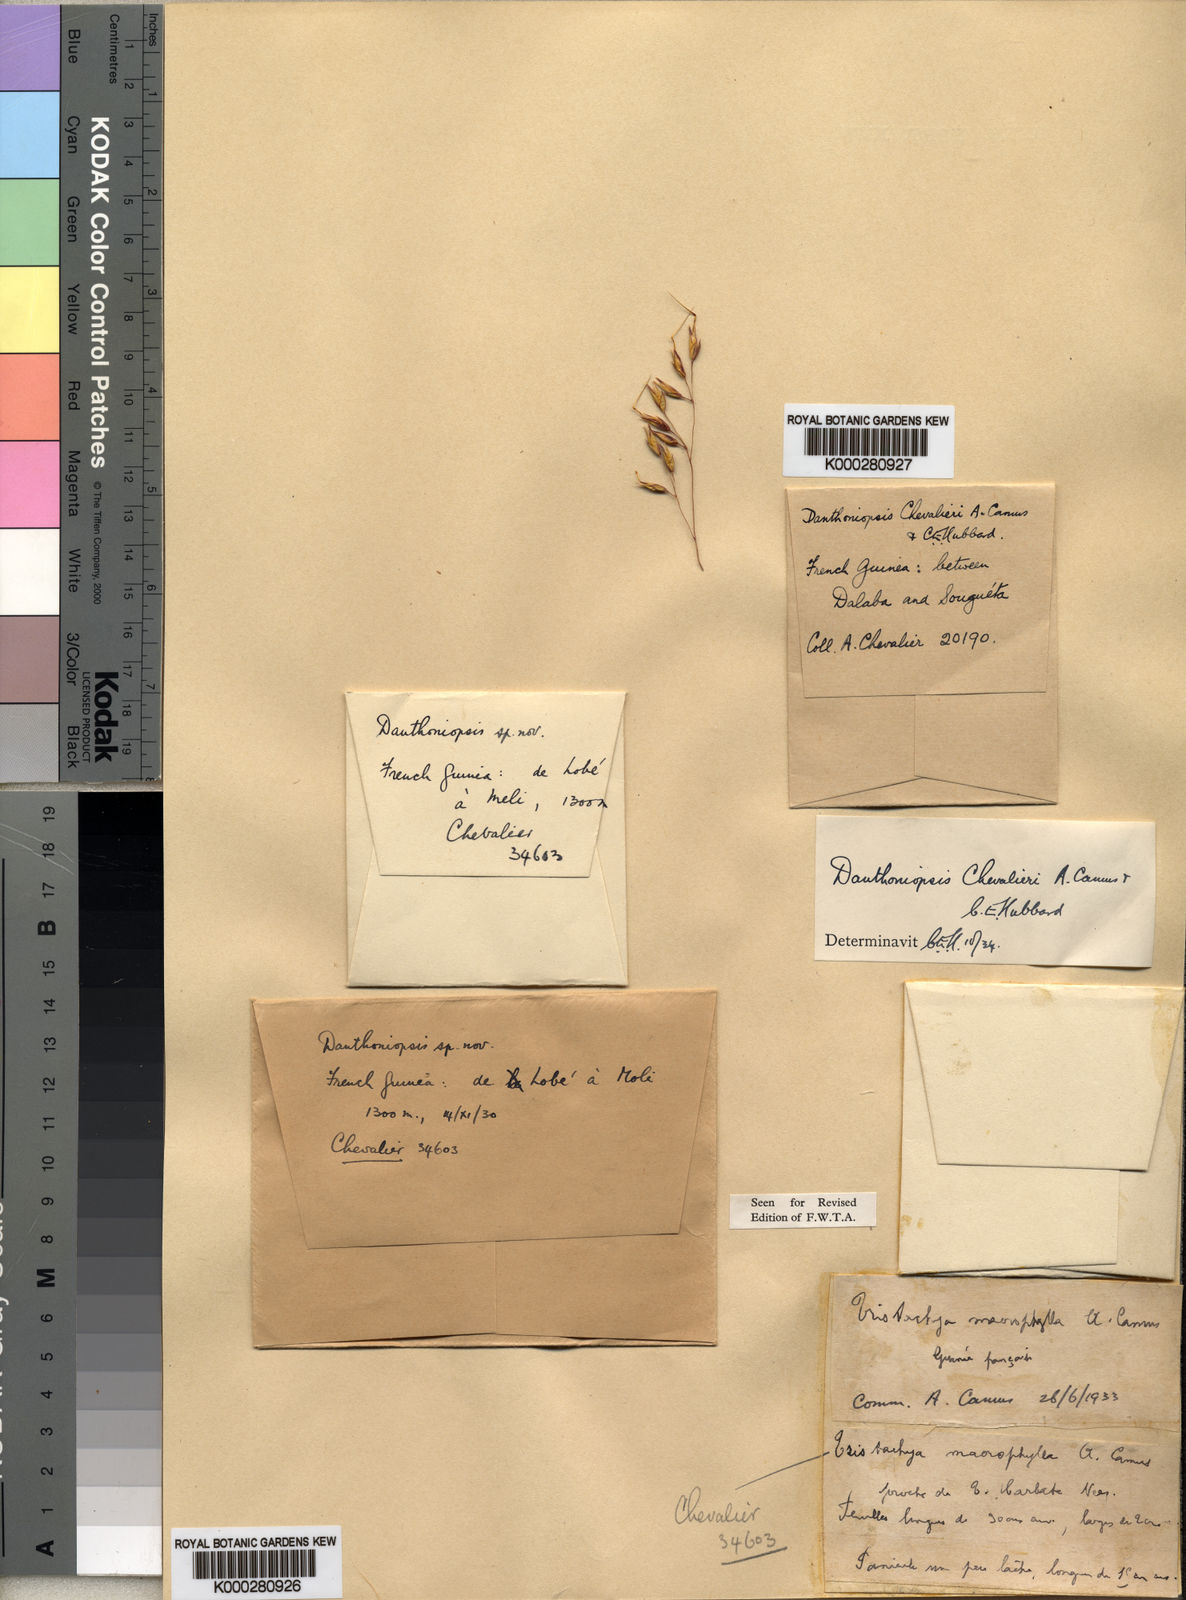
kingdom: Plantae
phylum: Tracheophyta
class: Liliopsida
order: Poales
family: Poaceae
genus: Danthoniopsis
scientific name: Danthoniopsis chevalieri
